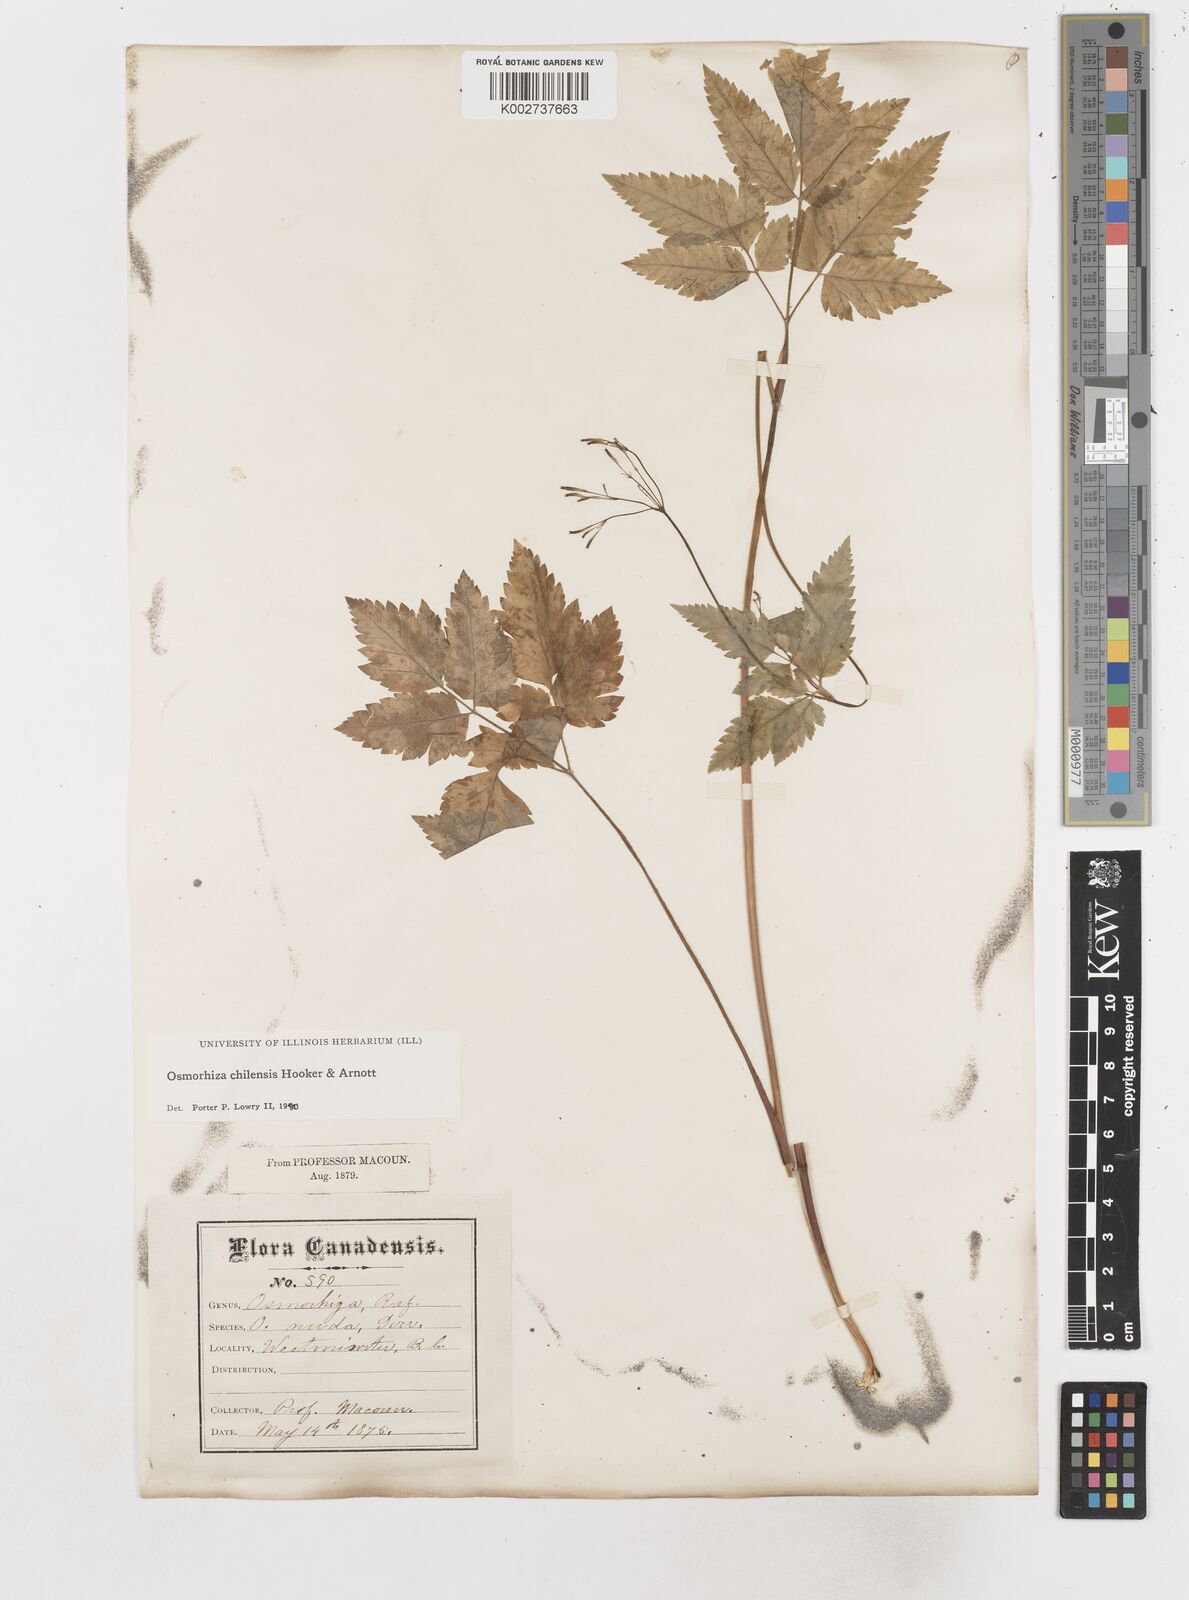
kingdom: Plantae
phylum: Tracheophyta
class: Magnoliopsida
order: Apiales
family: Apiaceae
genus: Osmorhiza
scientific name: Osmorhiza berteroi
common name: Mountain sweet cicely
